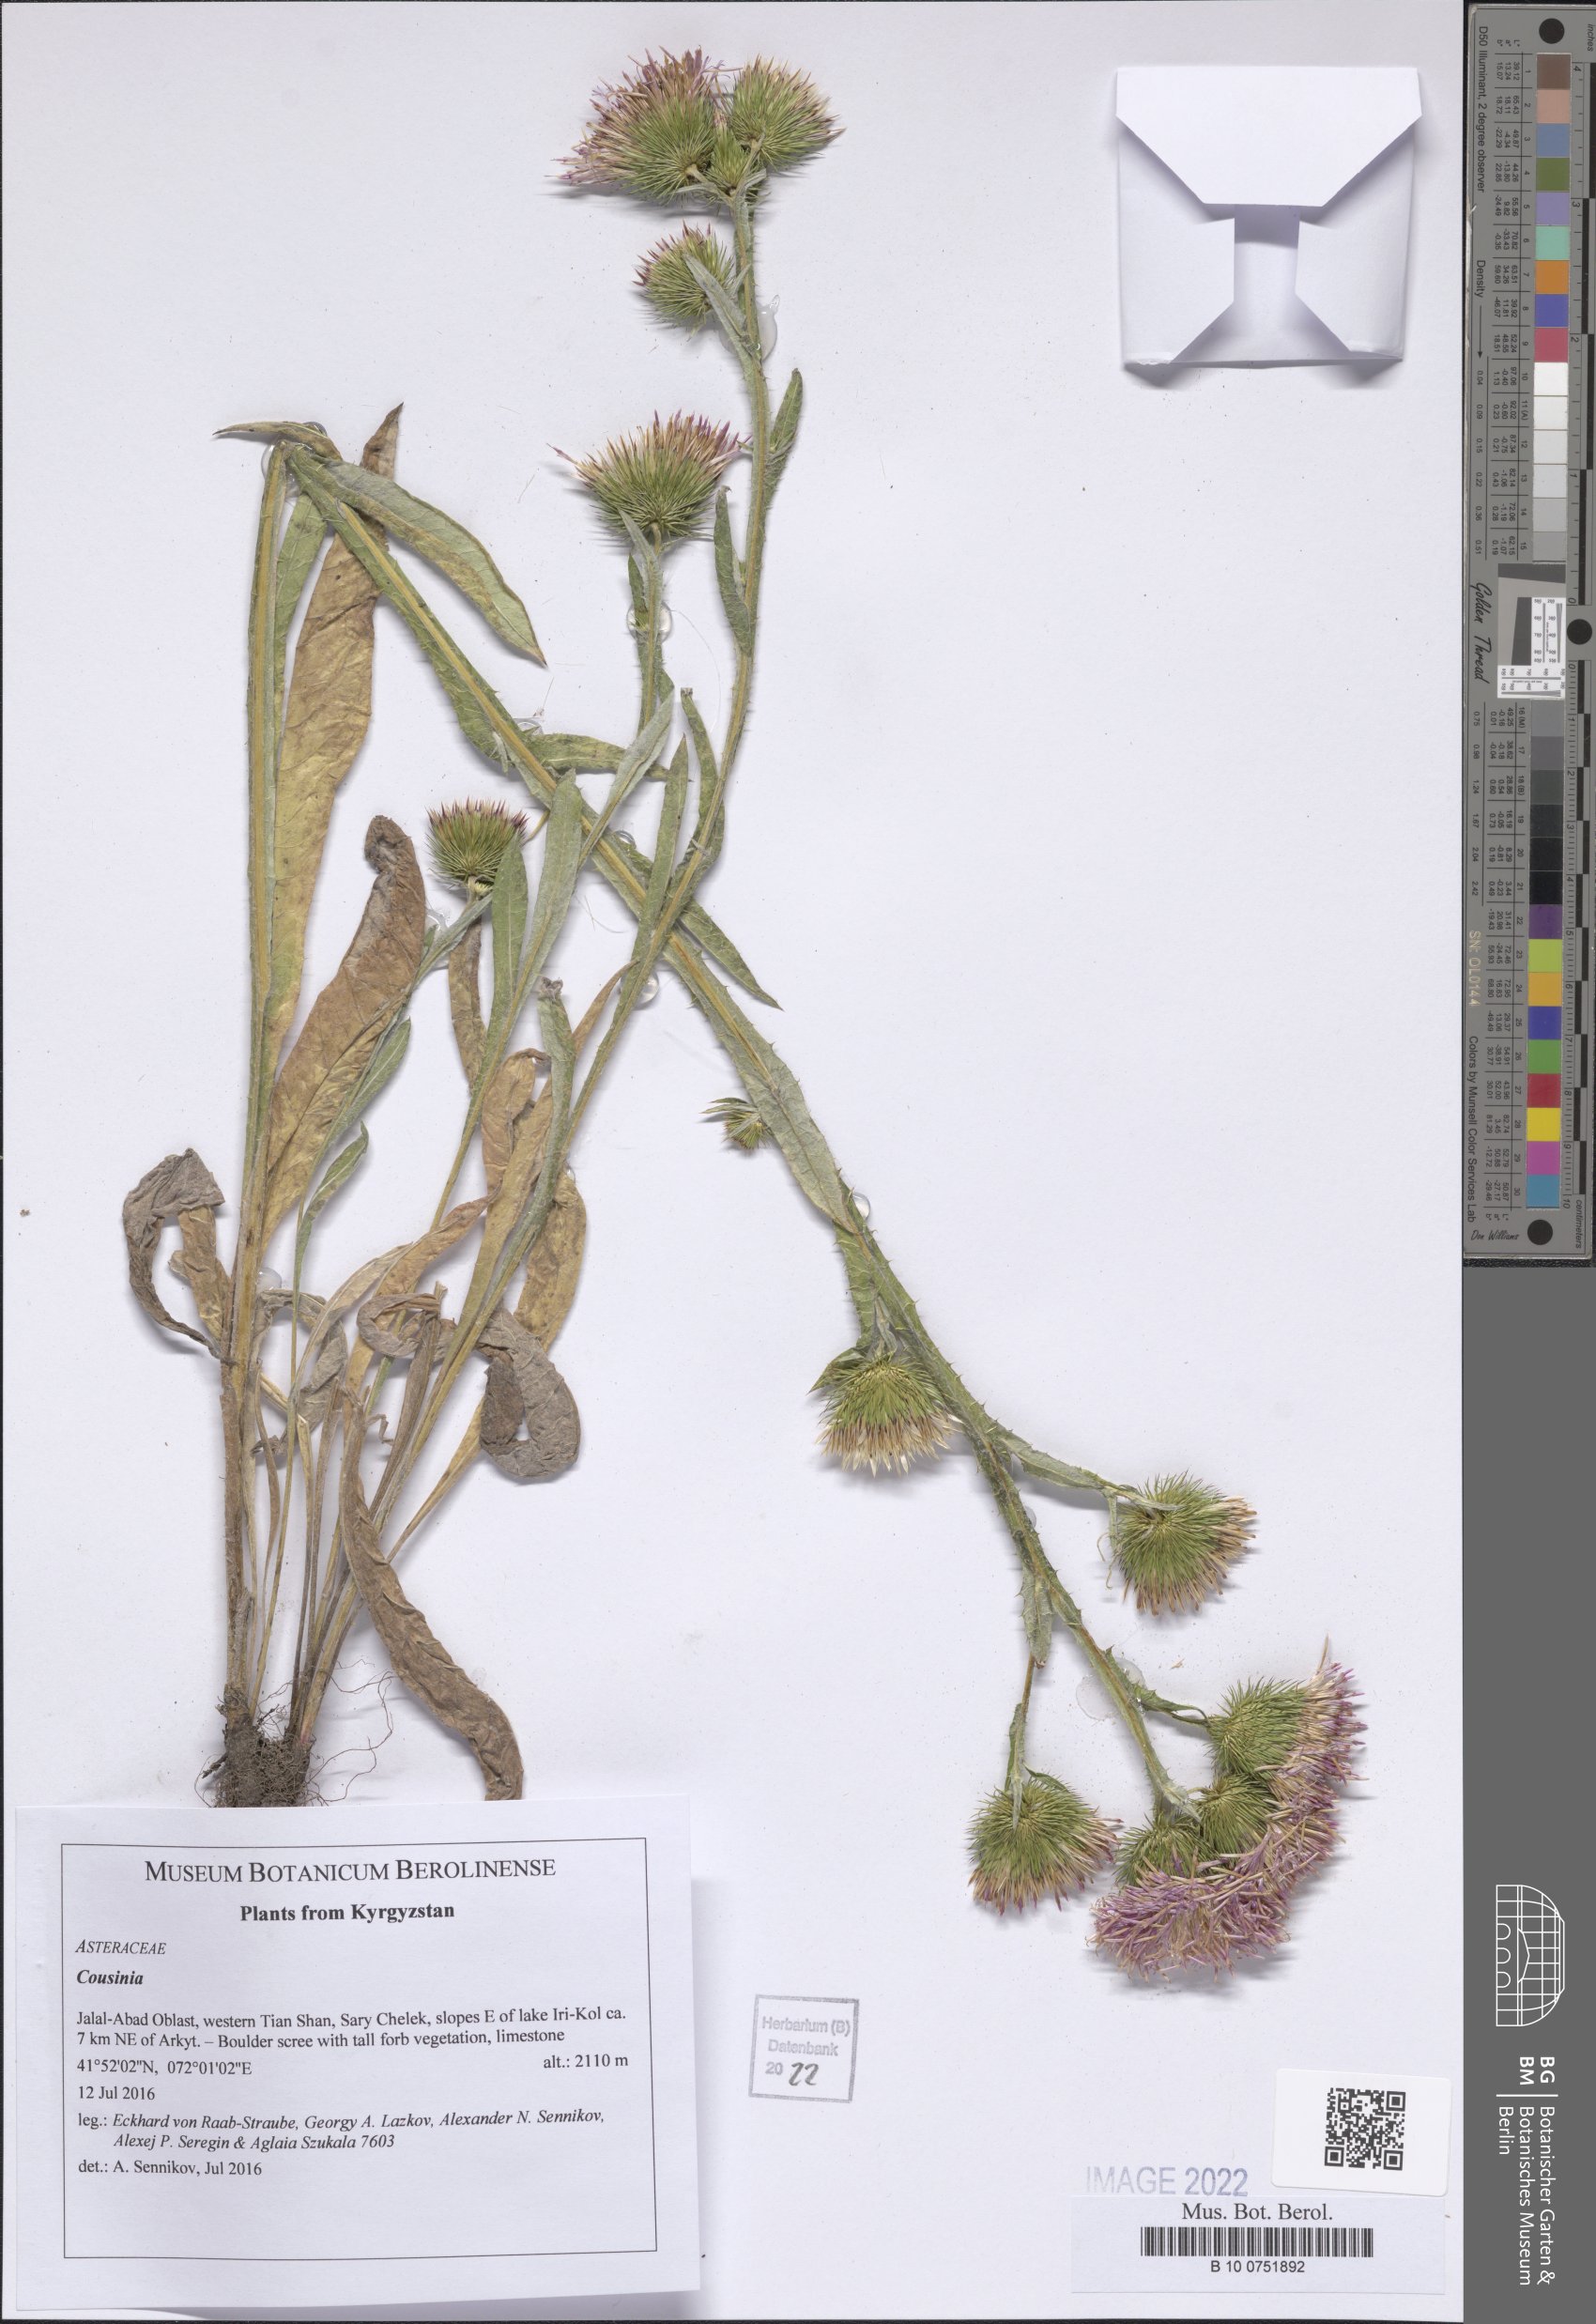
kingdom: Plantae
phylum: Tracheophyta
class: Magnoliopsida
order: Asterales
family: Asteraceae
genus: Cousinia
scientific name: Cousinia
